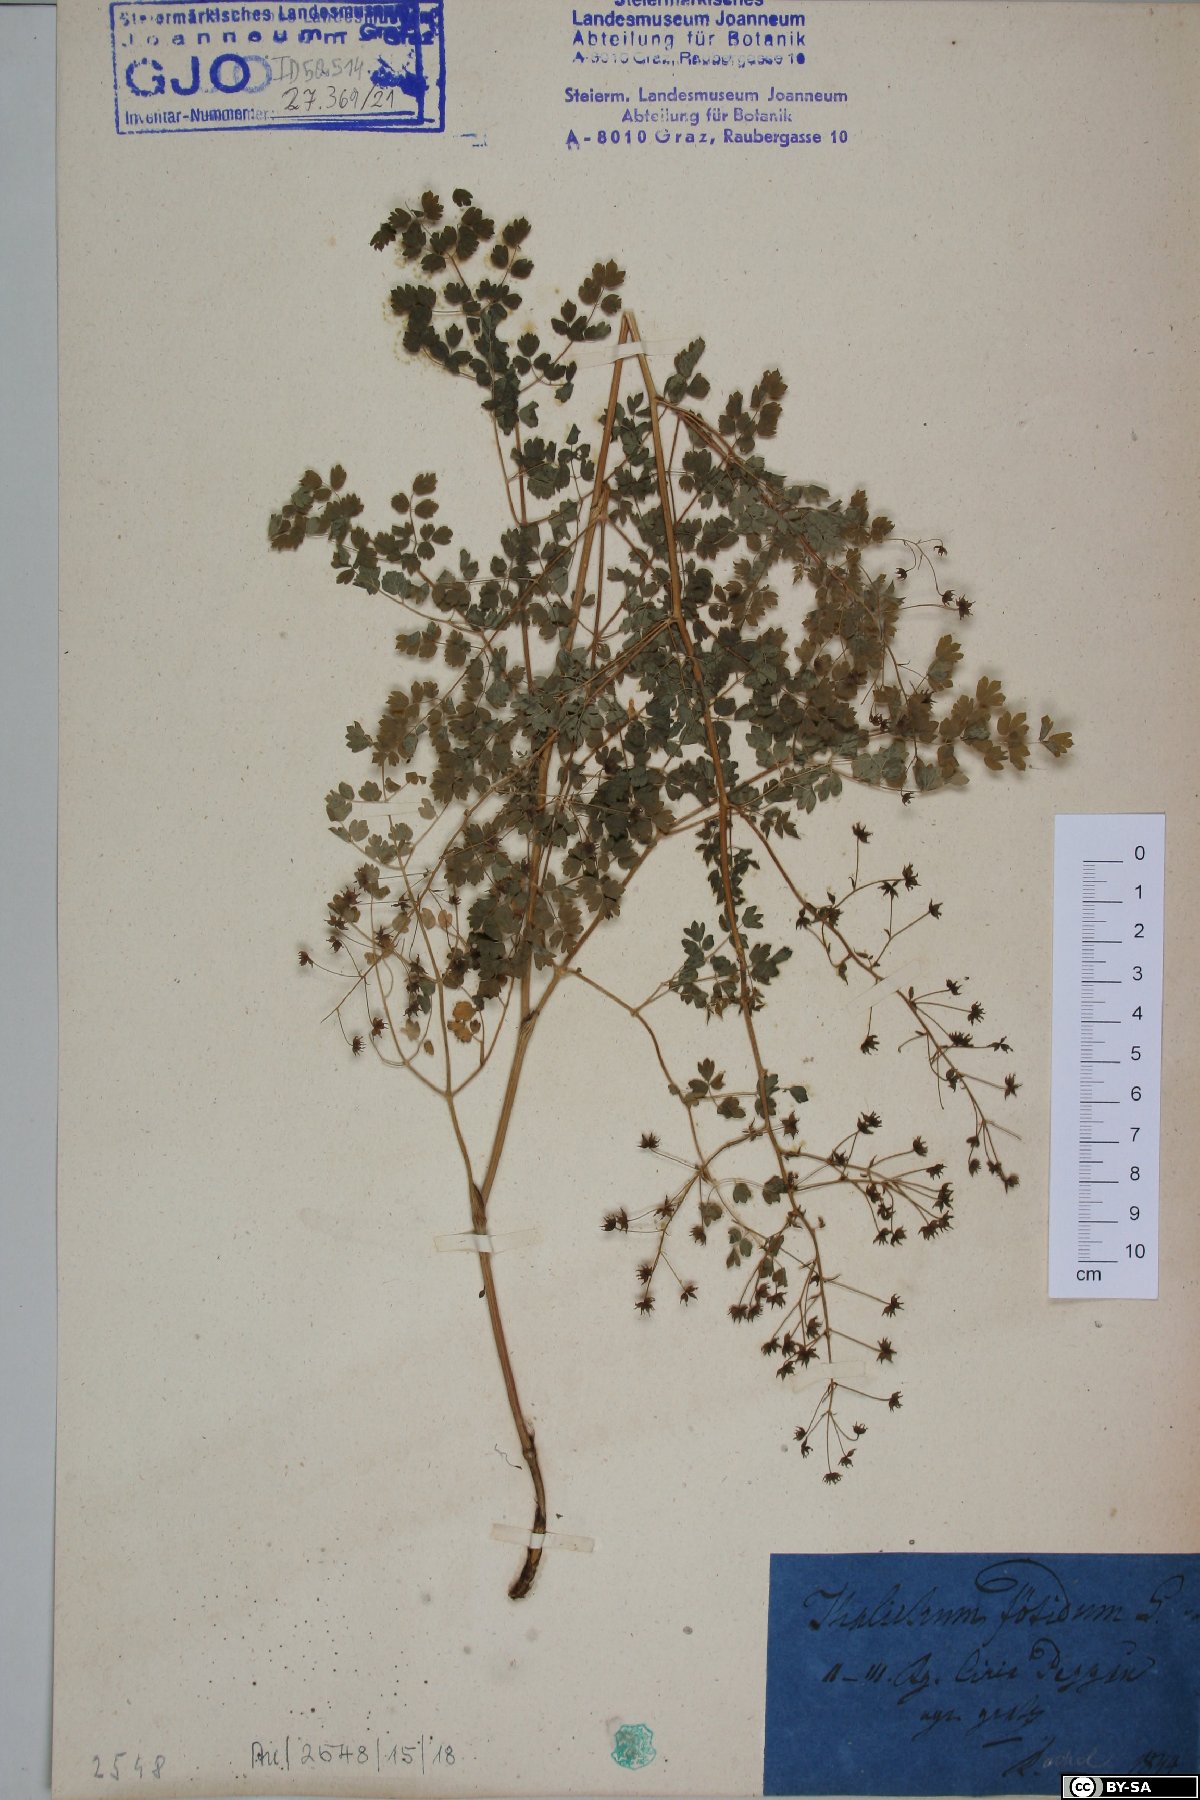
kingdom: Plantae
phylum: Tracheophyta
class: Magnoliopsida
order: Ranunculales
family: Ranunculaceae
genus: Thalictrum
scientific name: Thalictrum foetidum
